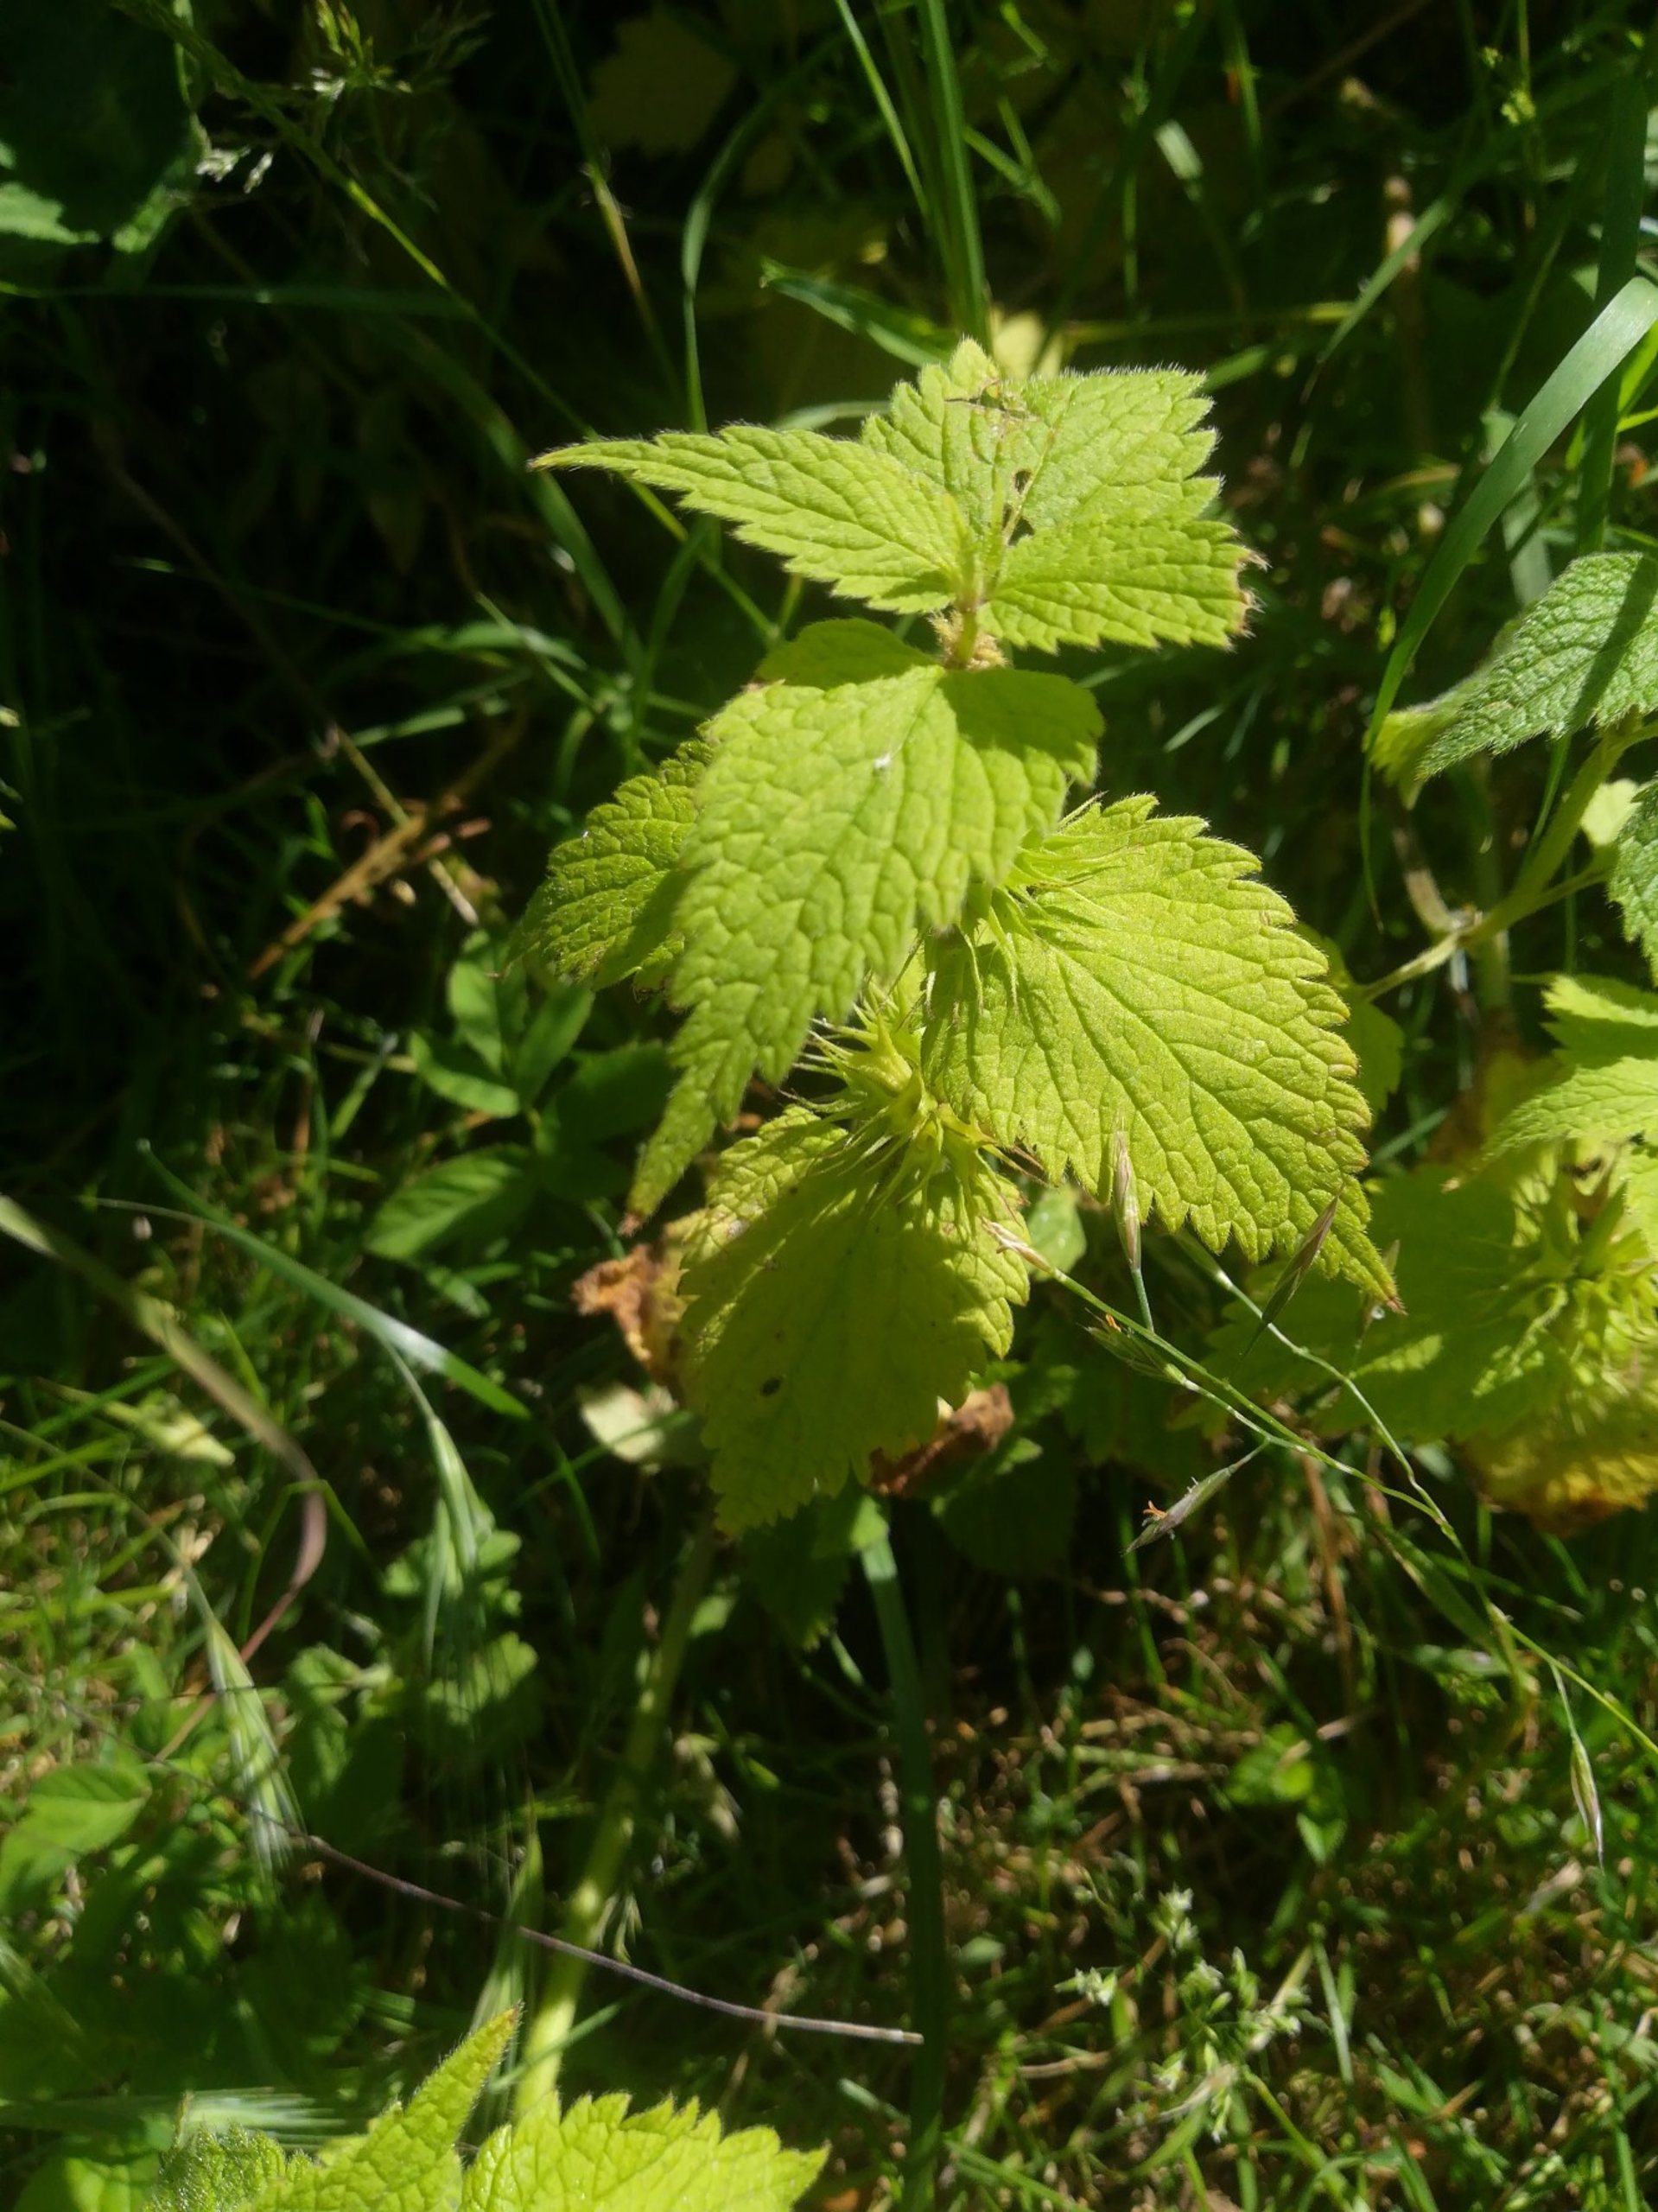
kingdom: Plantae
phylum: Tracheophyta
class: Magnoliopsida
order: Lamiales
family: Lamiaceae
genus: Lamium
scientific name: Lamium album
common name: Døvnælde
